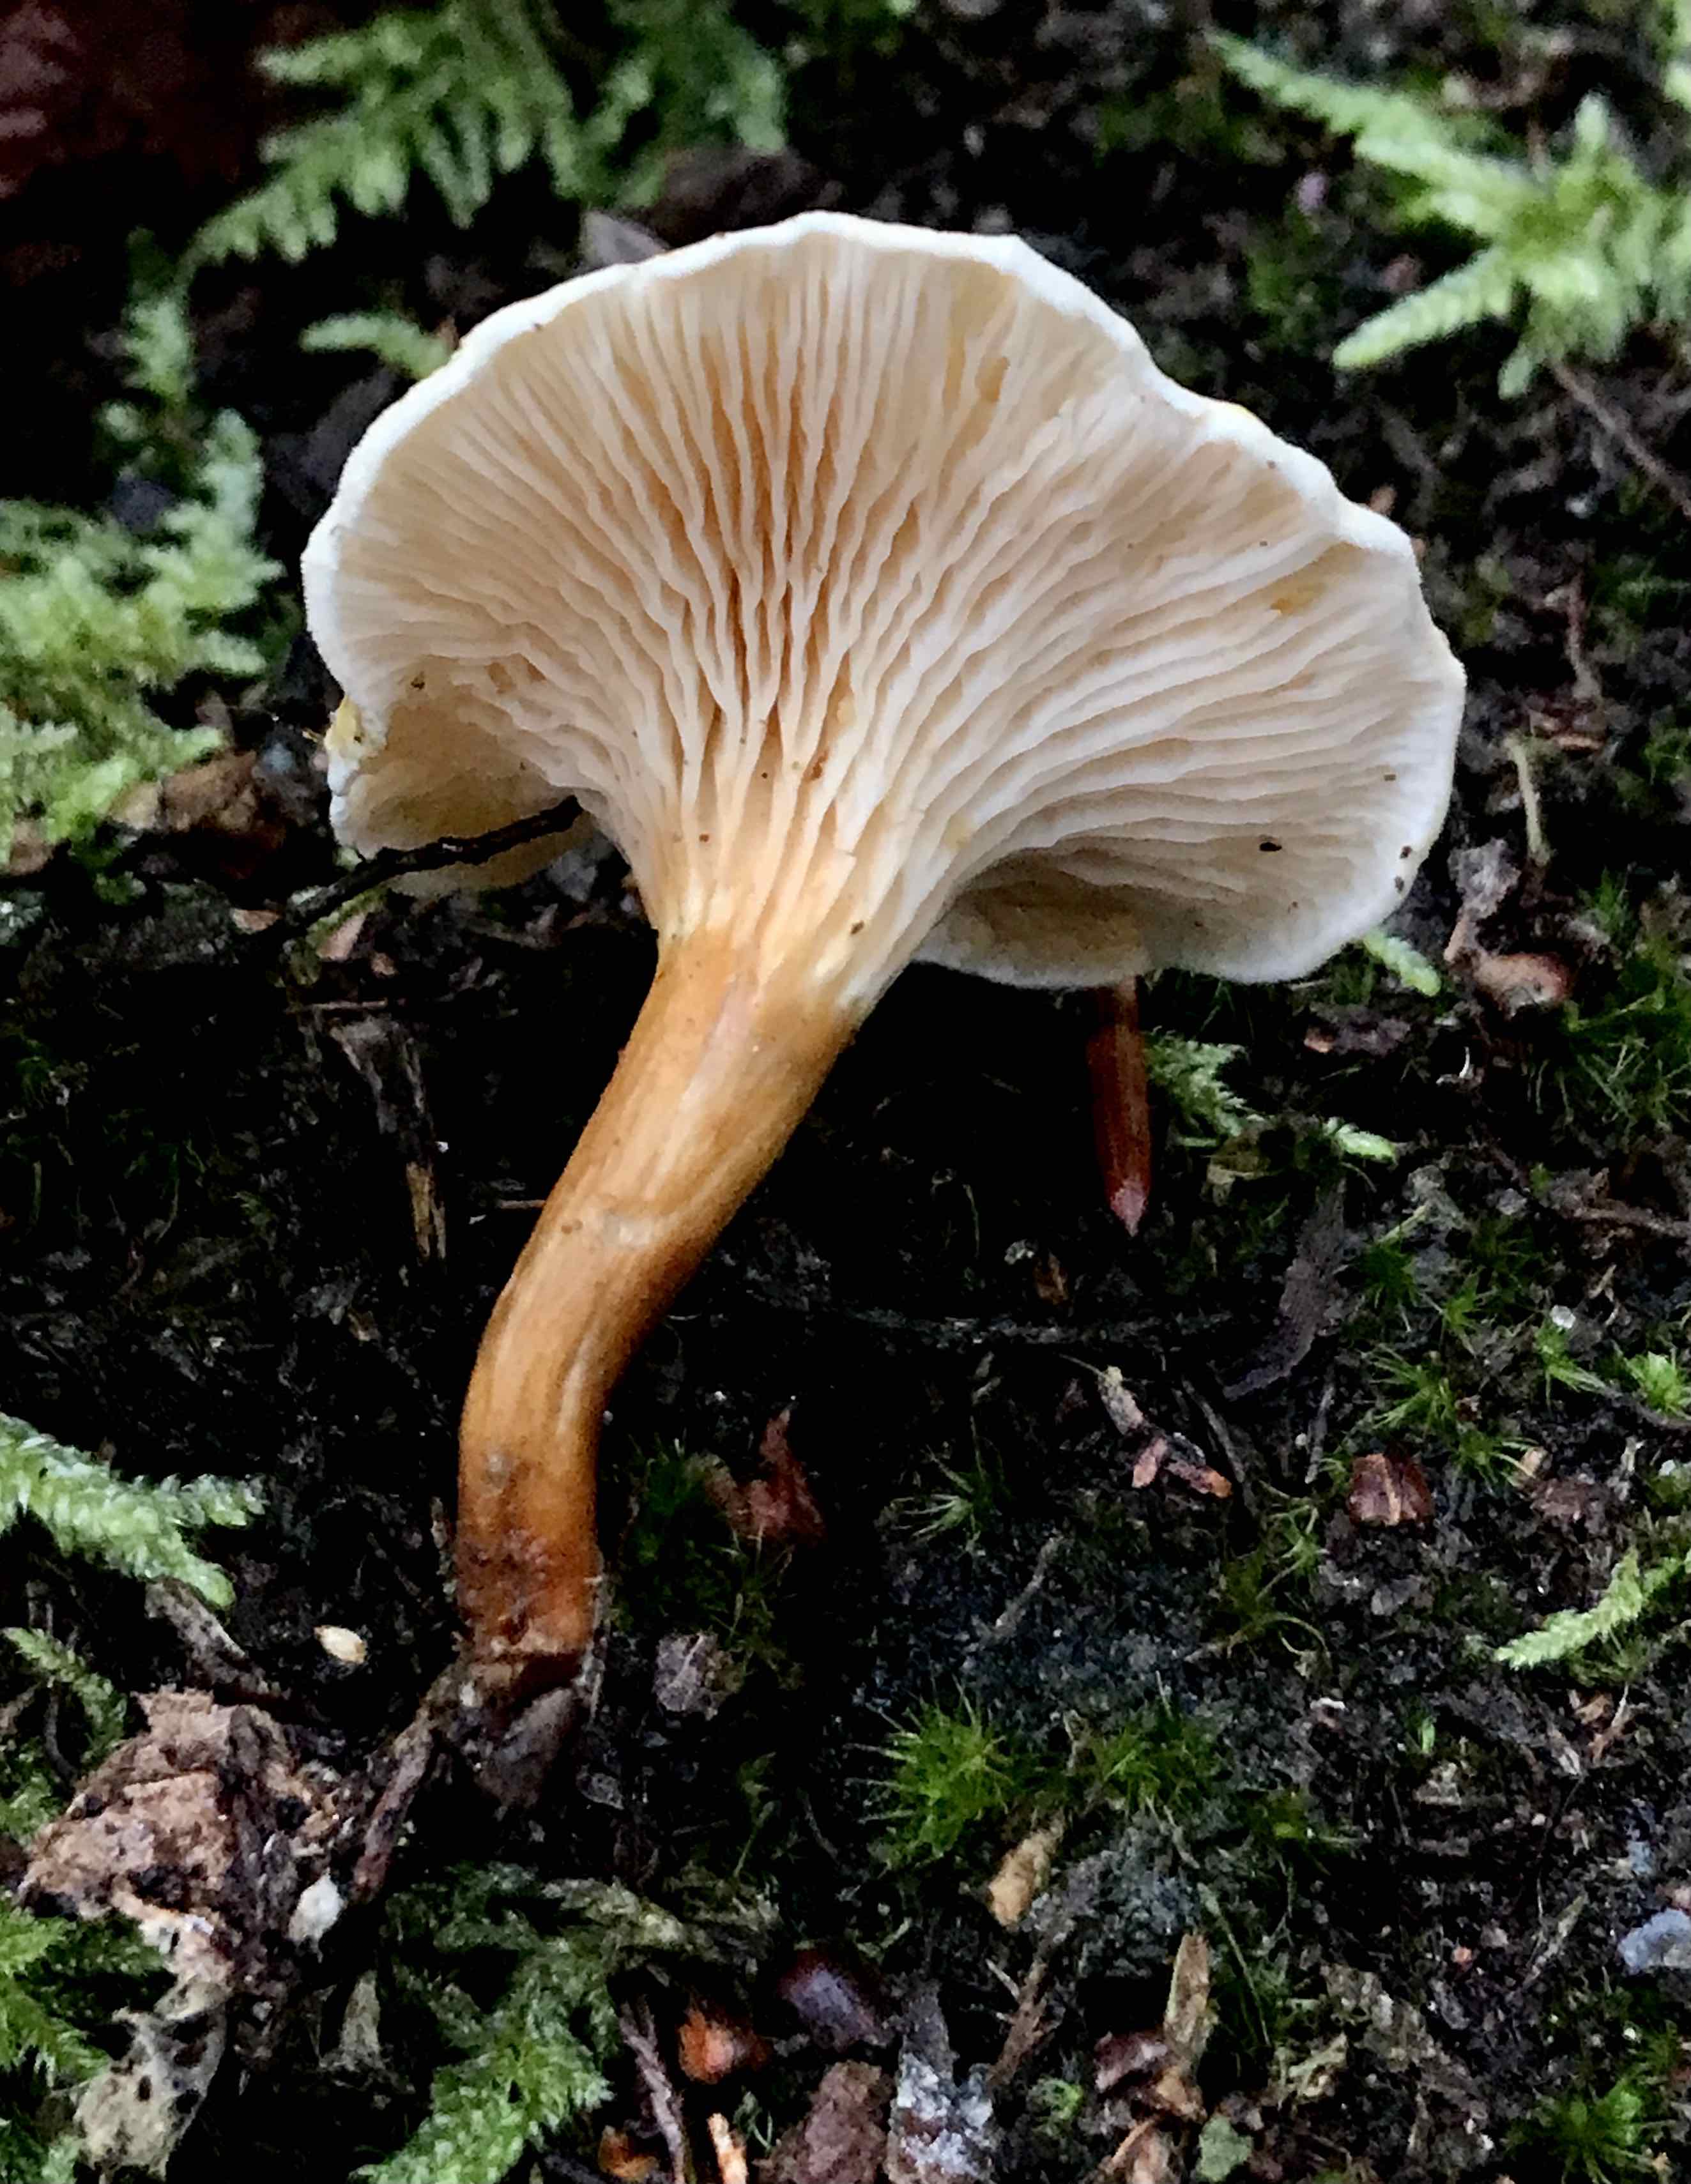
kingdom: Fungi
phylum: Basidiomycota
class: Agaricomycetes
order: Boletales
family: Hygrophoropsidaceae
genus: Hygrophoropsis
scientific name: Hygrophoropsis
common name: orangekantarel
